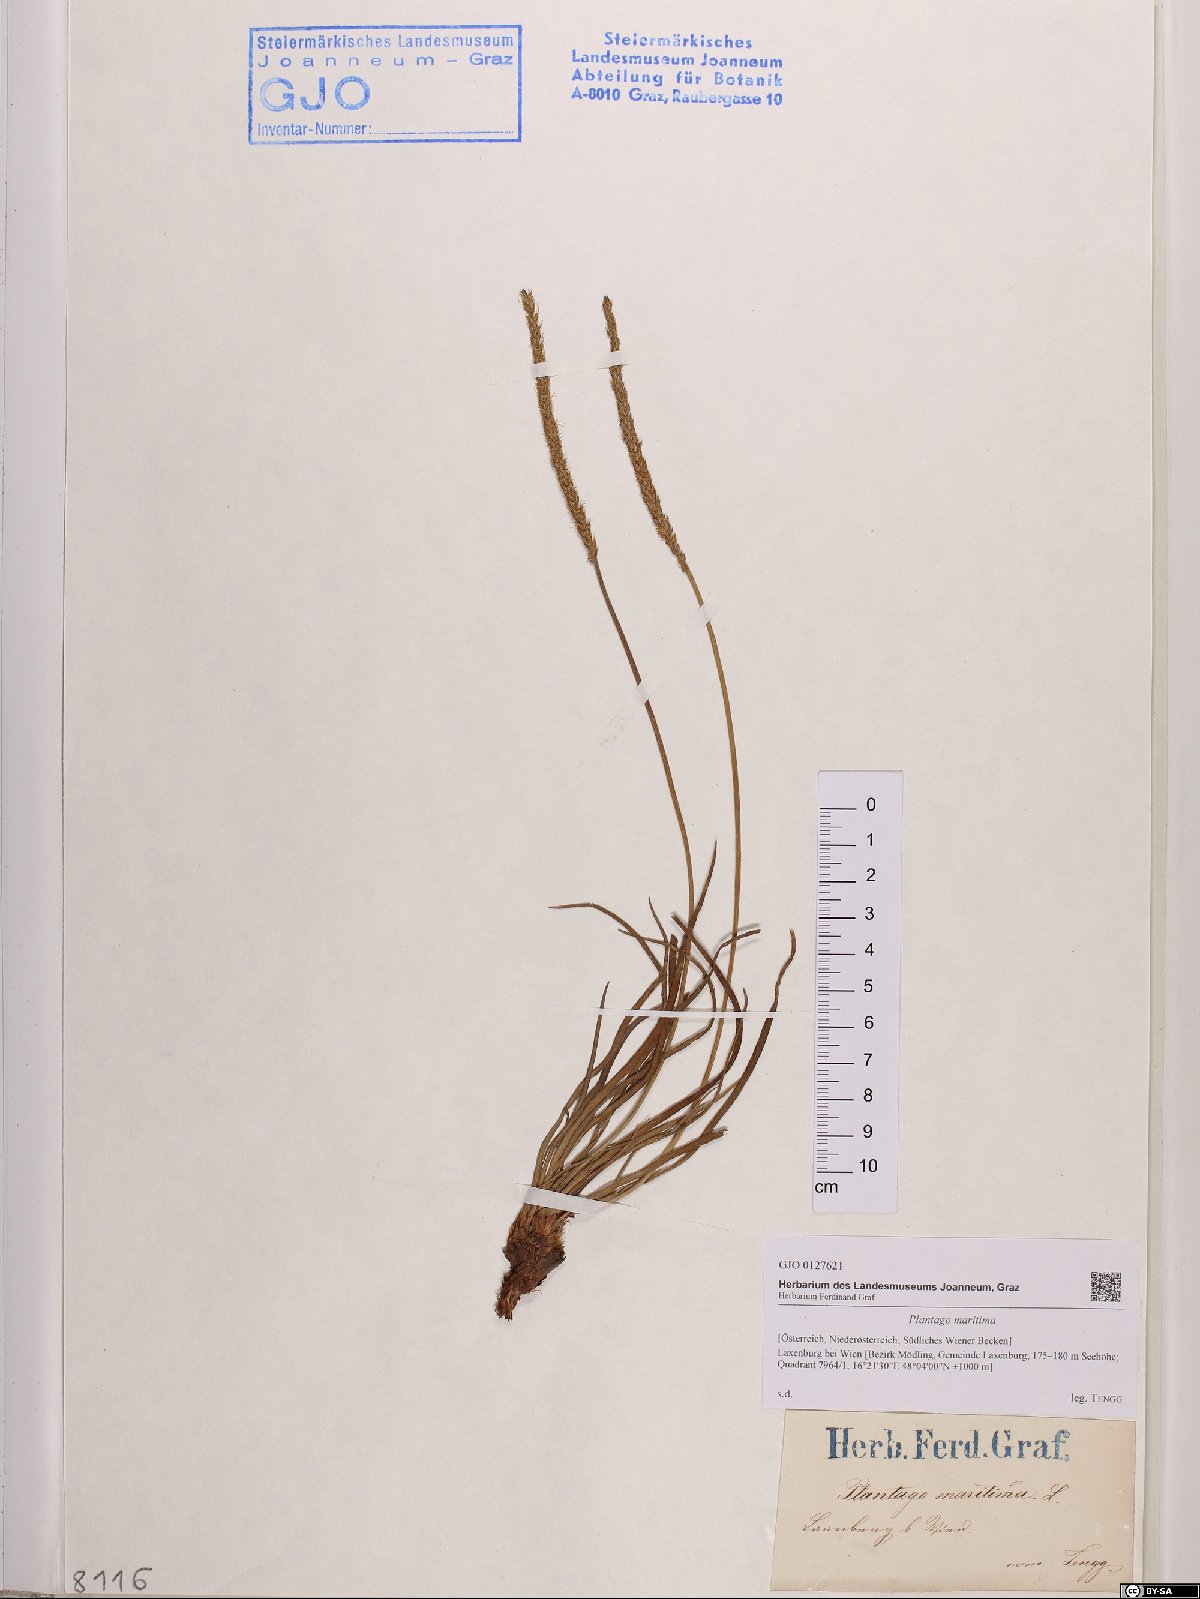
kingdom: Plantae
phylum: Tracheophyta
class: Magnoliopsida
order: Lamiales
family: Plantaginaceae
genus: Plantago
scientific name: Plantago maritima
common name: Sea plantain
